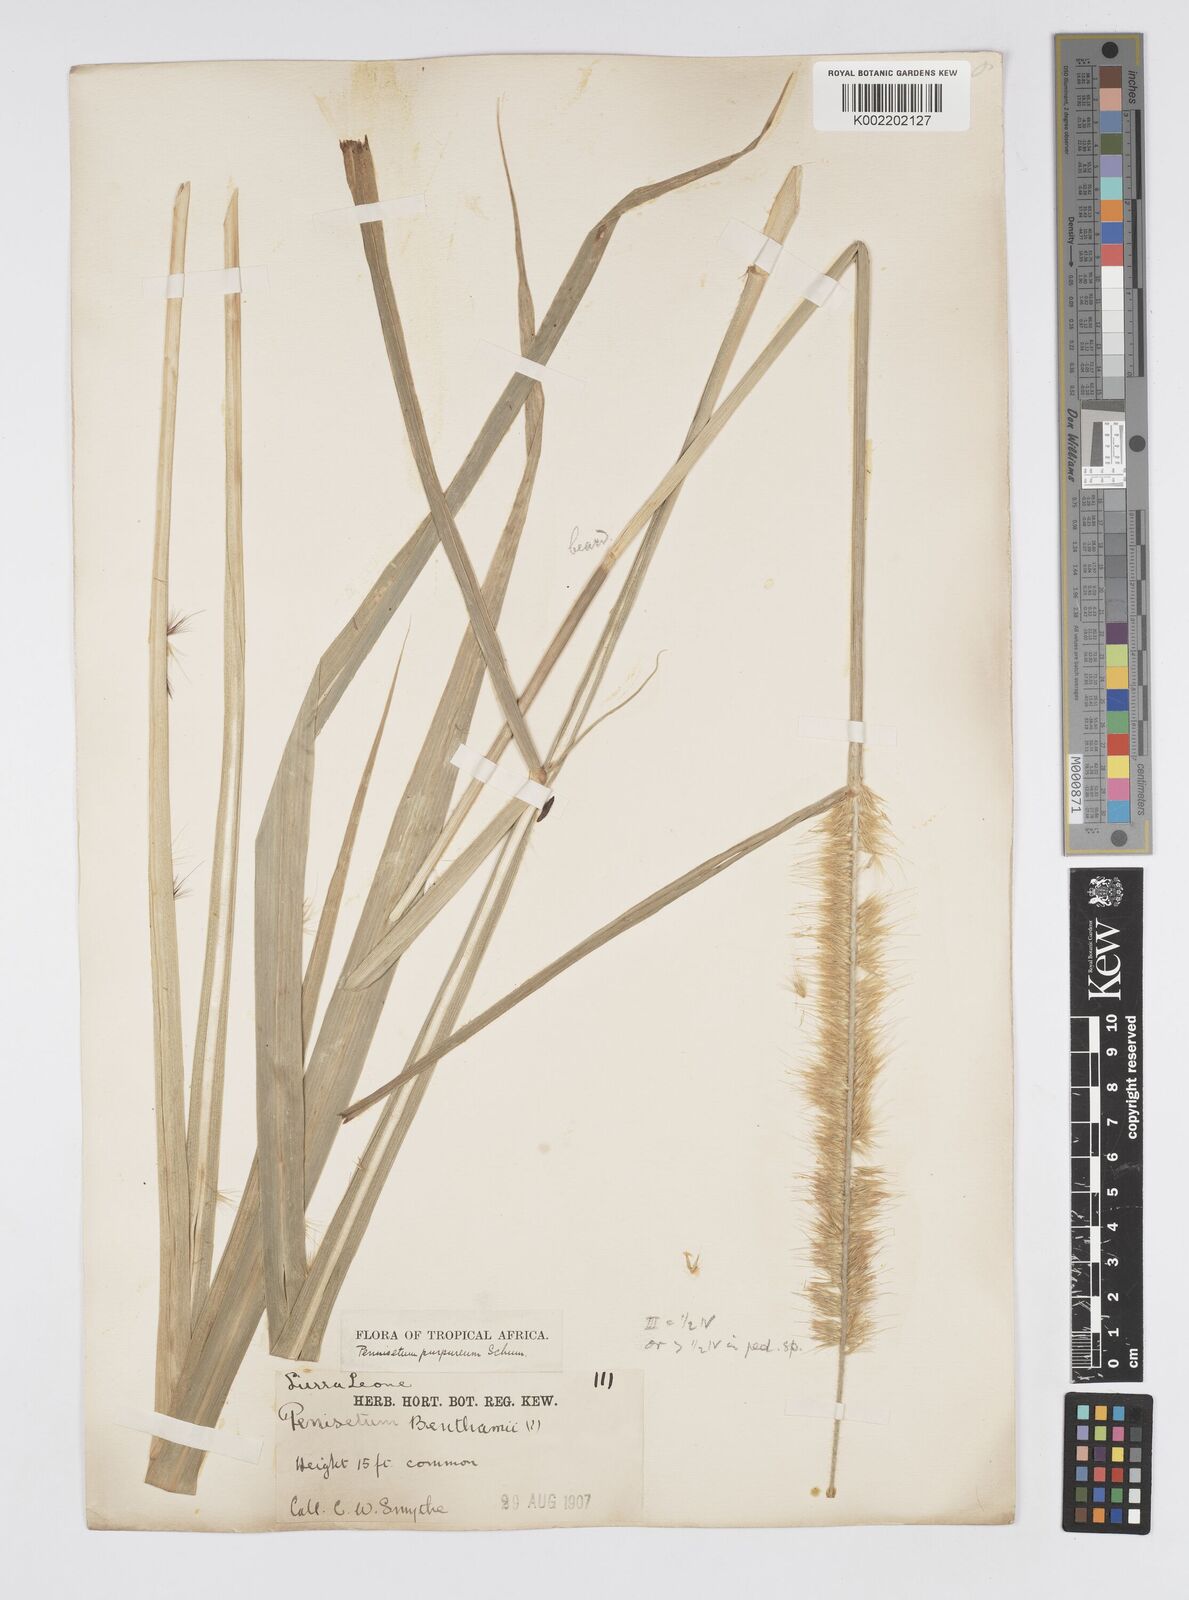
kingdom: Plantae
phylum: Tracheophyta
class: Liliopsida
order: Poales
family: Poaceae
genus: Cenchrus
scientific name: Cenchrus purpureus
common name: Elephant grass
